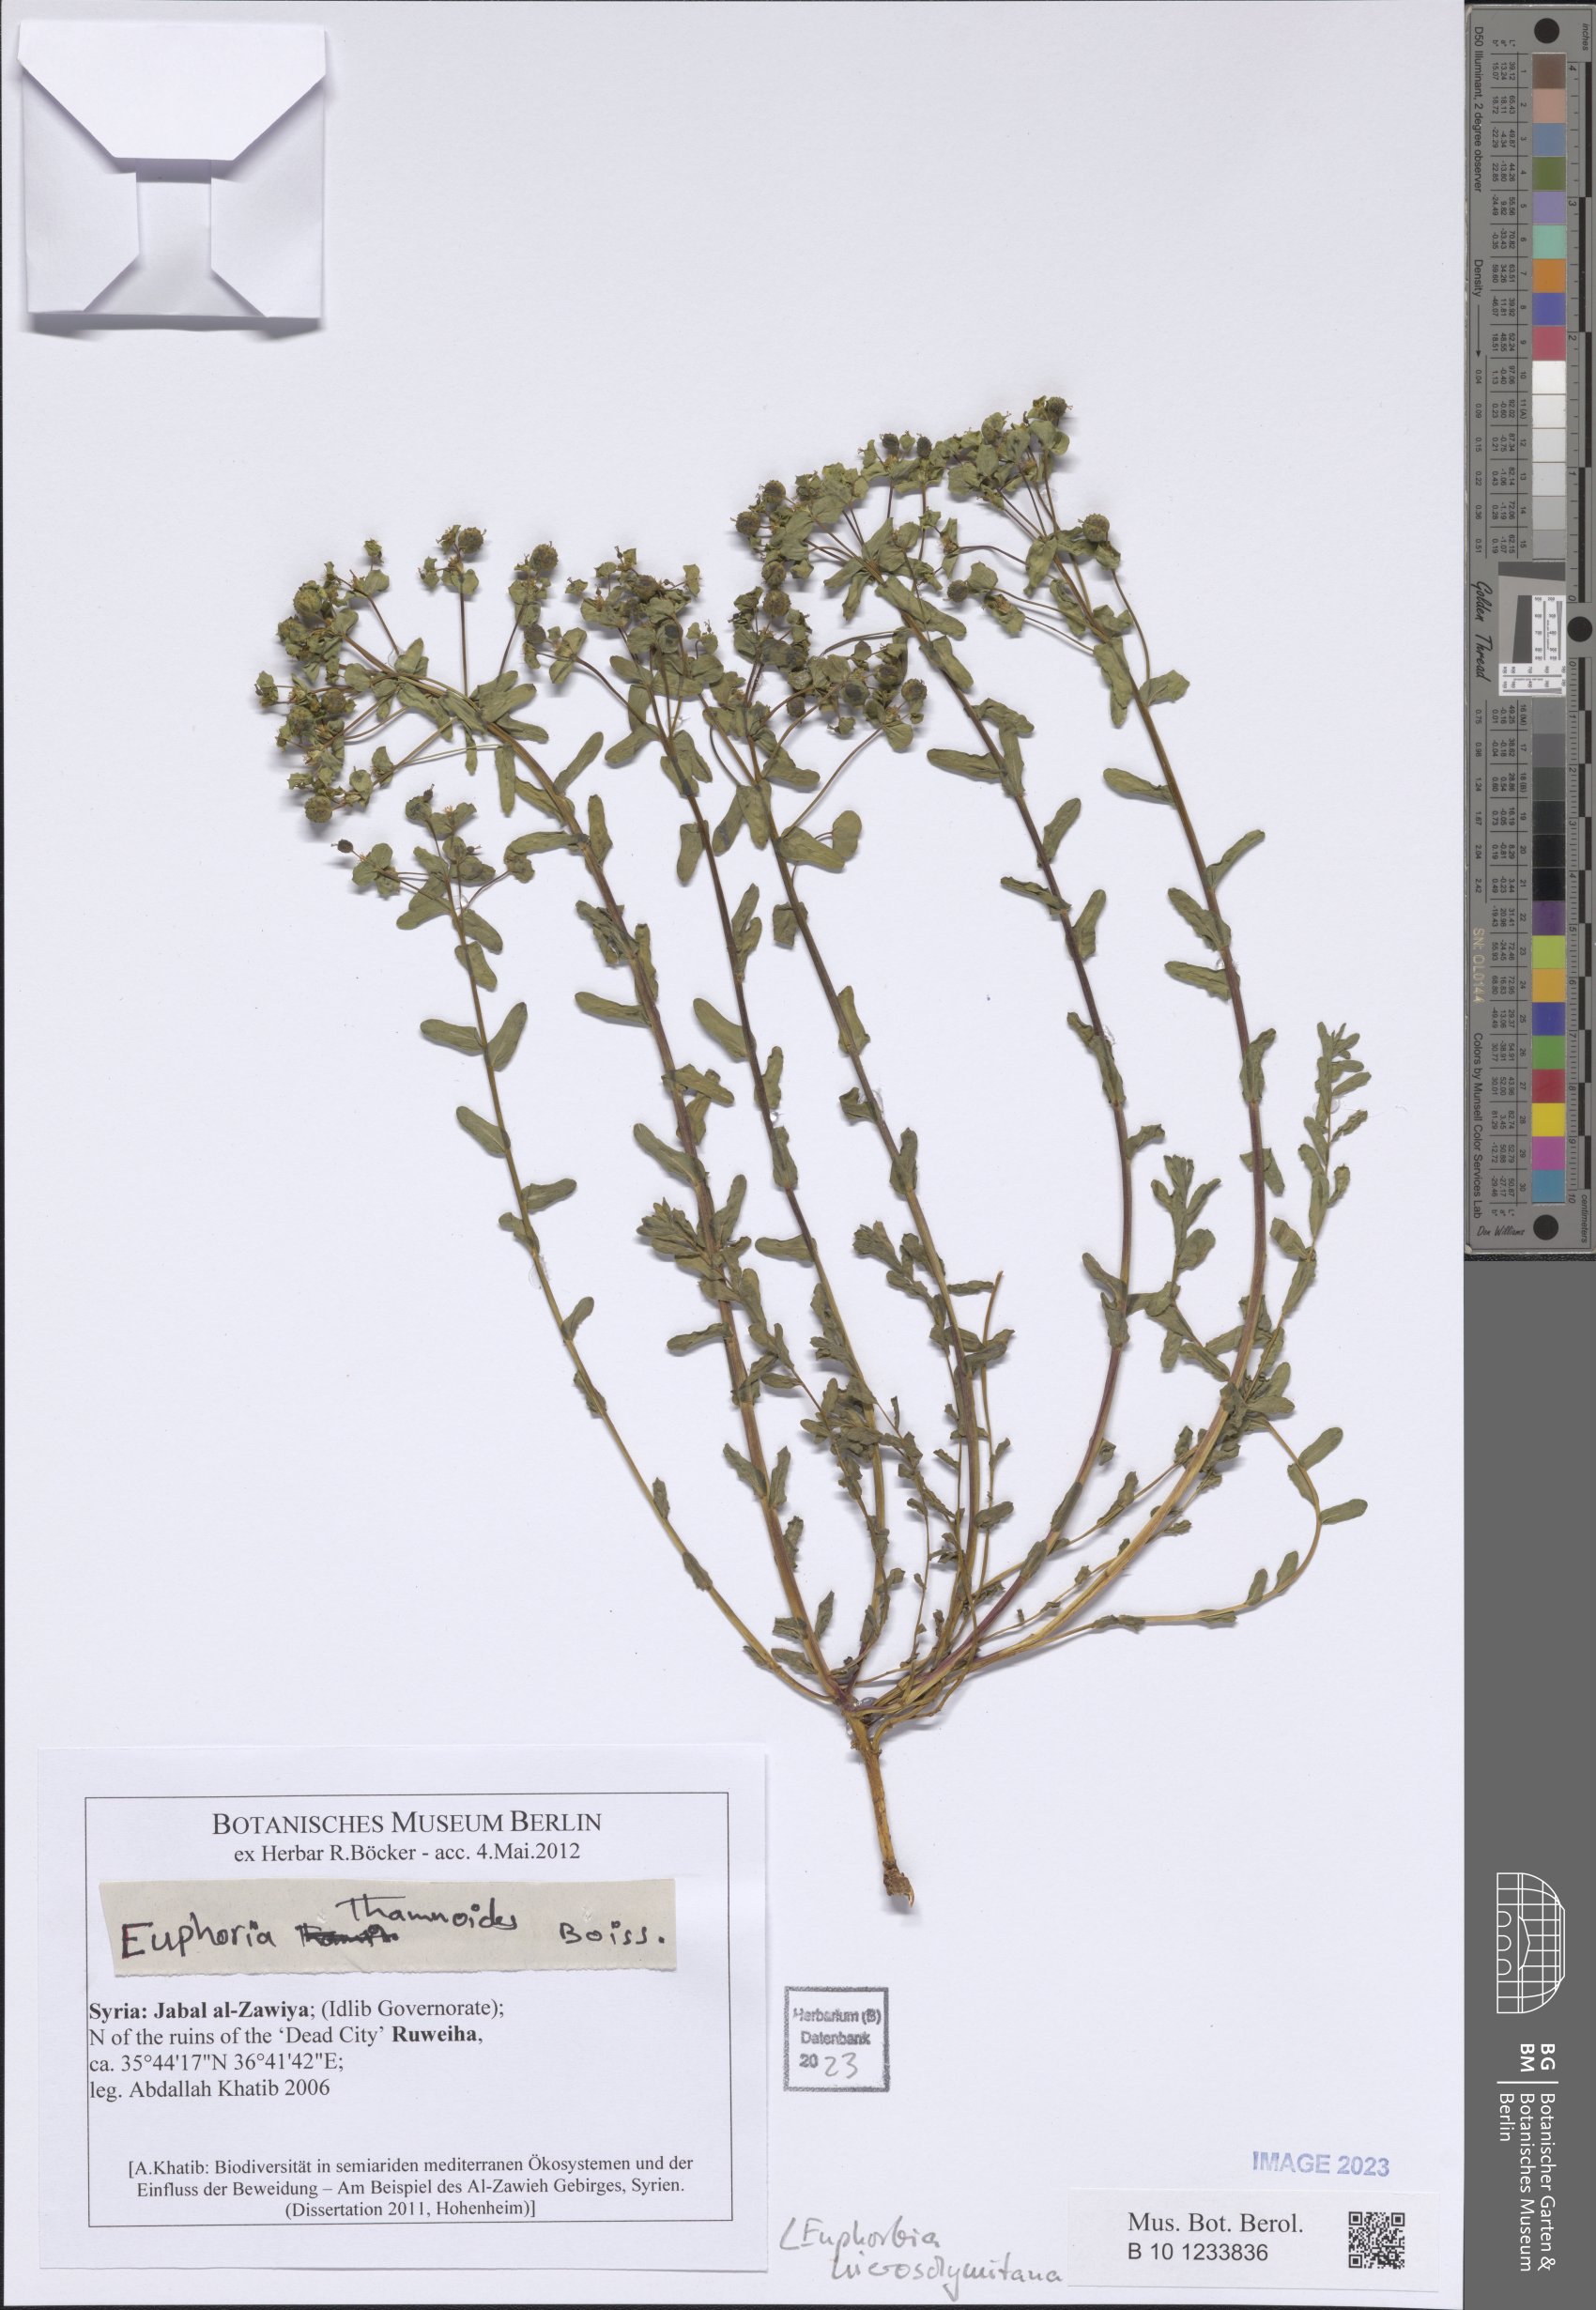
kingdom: Plantae
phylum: Tracheophyta
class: Magnoliopsida
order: Malpighiales
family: Euphorbiaceae
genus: Euphorbia
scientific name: Euphorbia hierosolymitana
